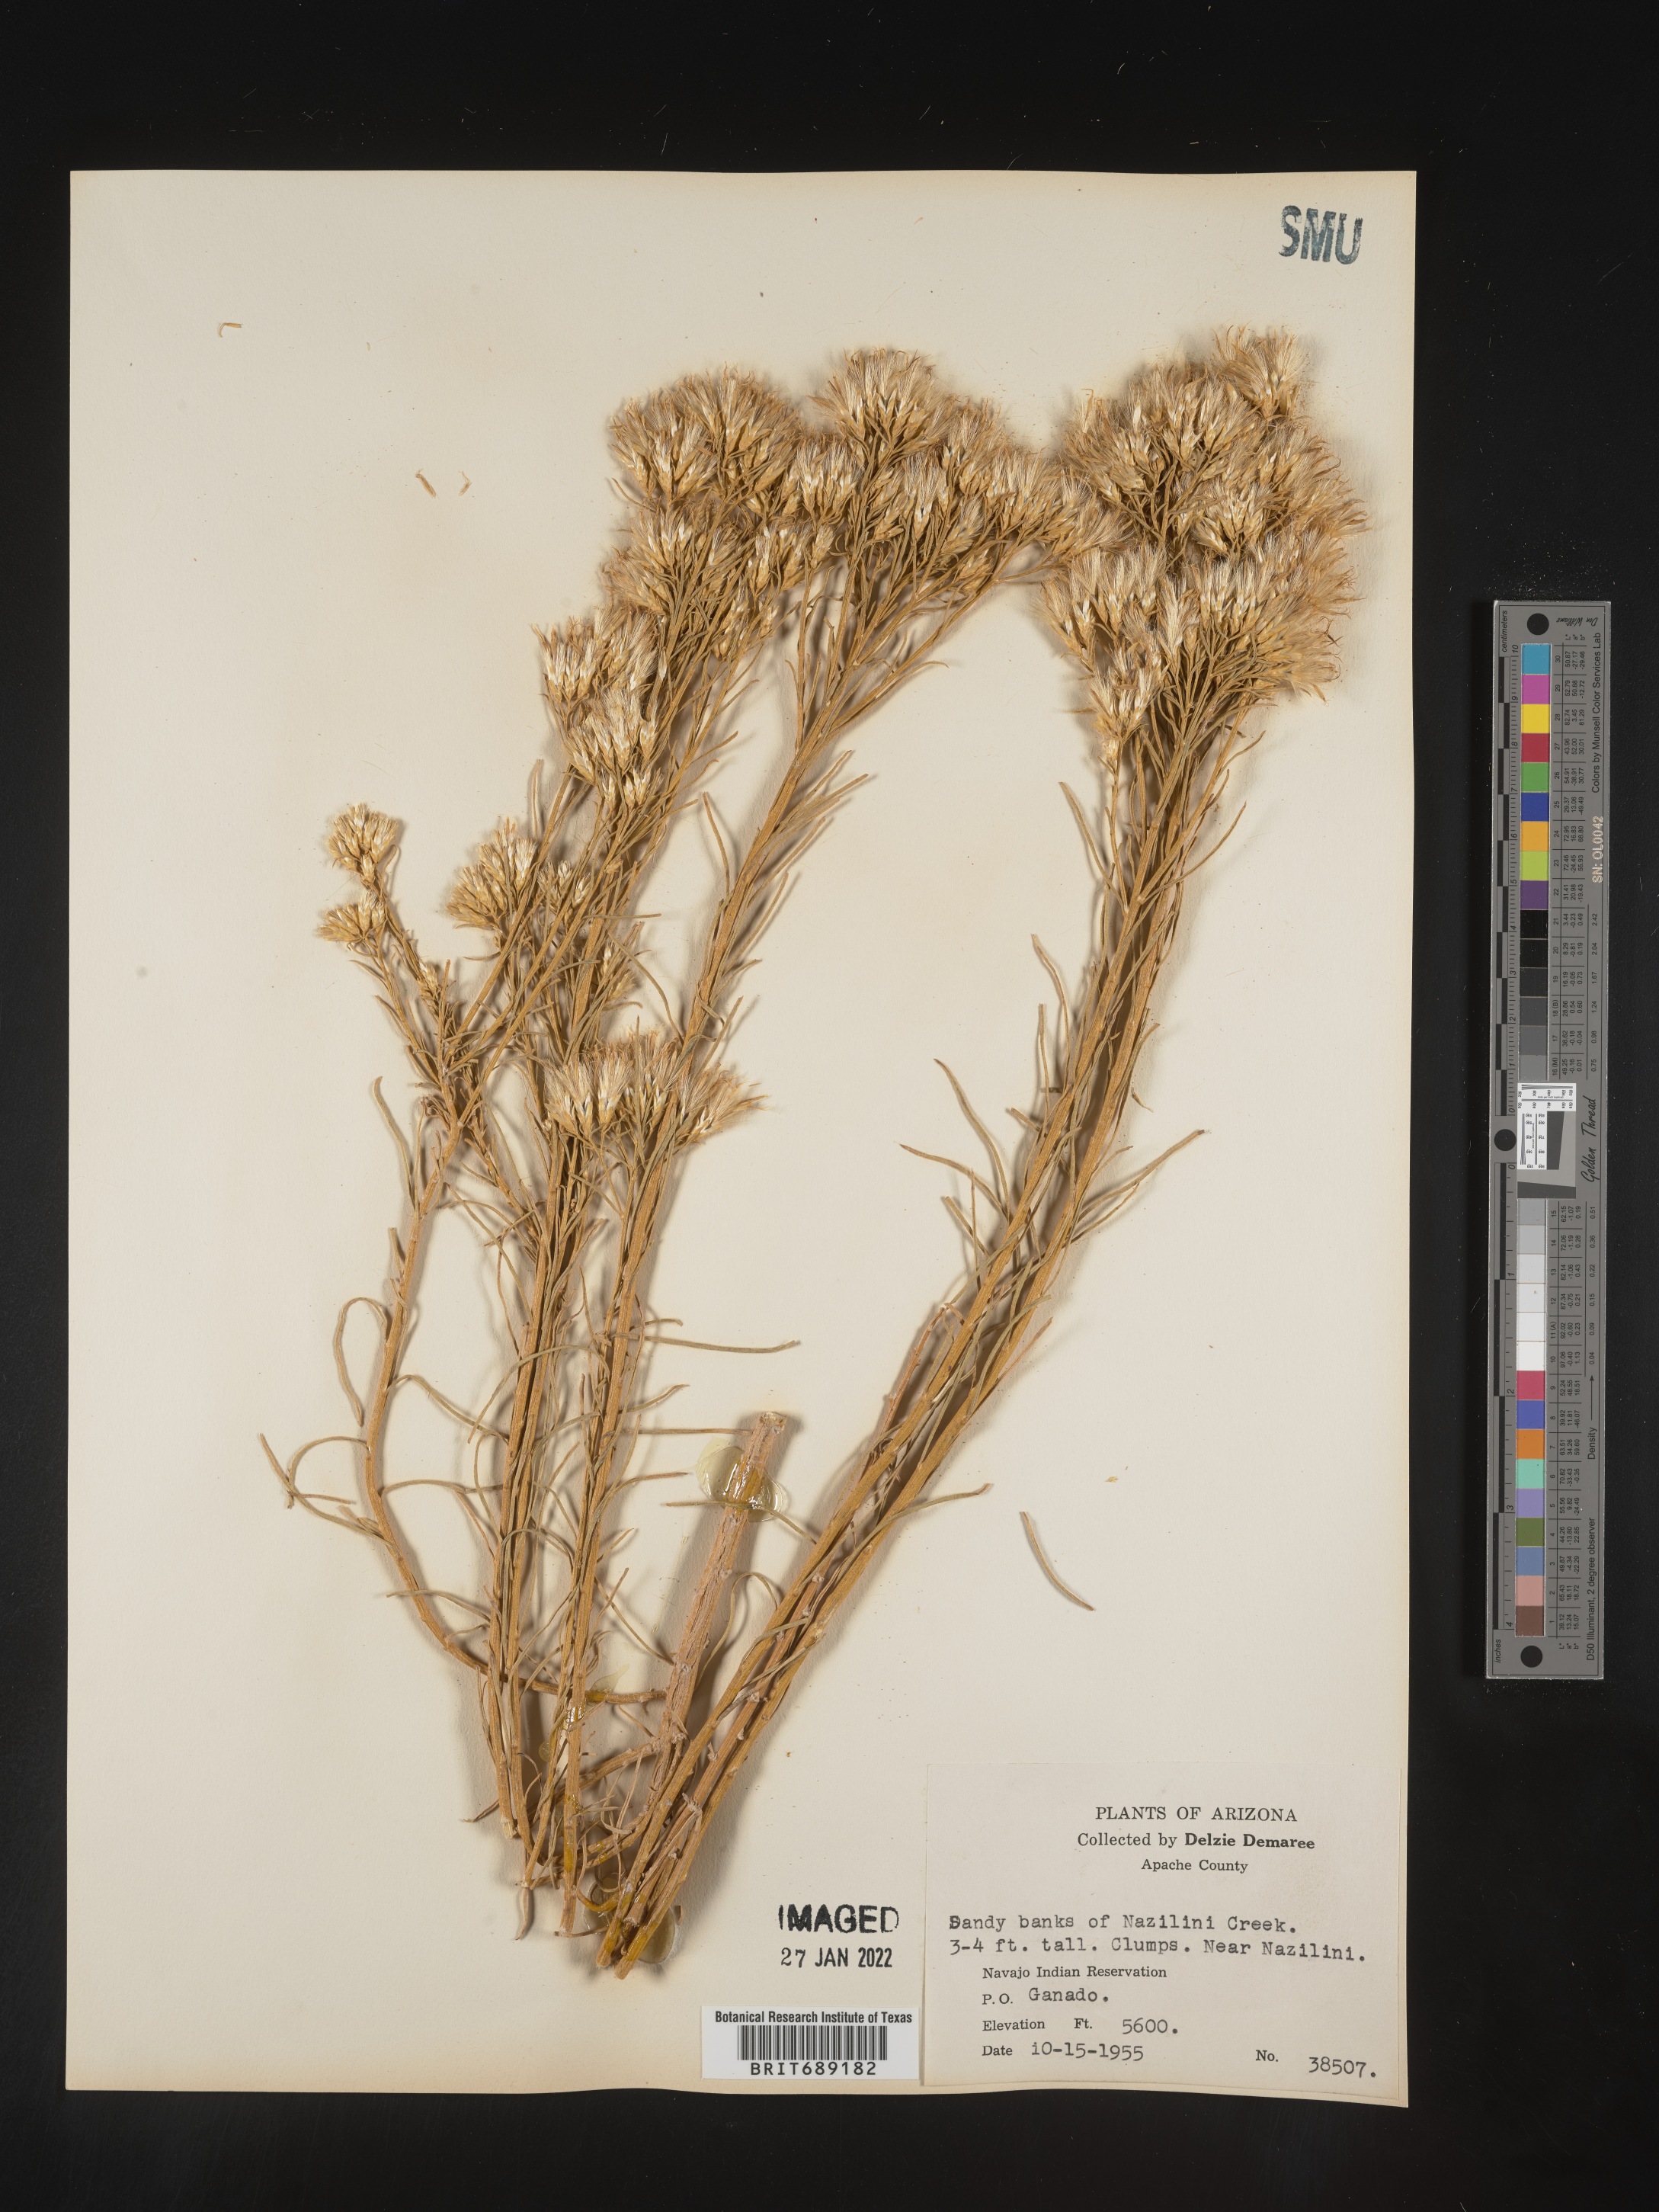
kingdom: Plantae
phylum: Tracheophyta
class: Magnoliopsida
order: Asterales
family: Asteraceae
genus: Chrysothamnus
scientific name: Chrysothamnus
